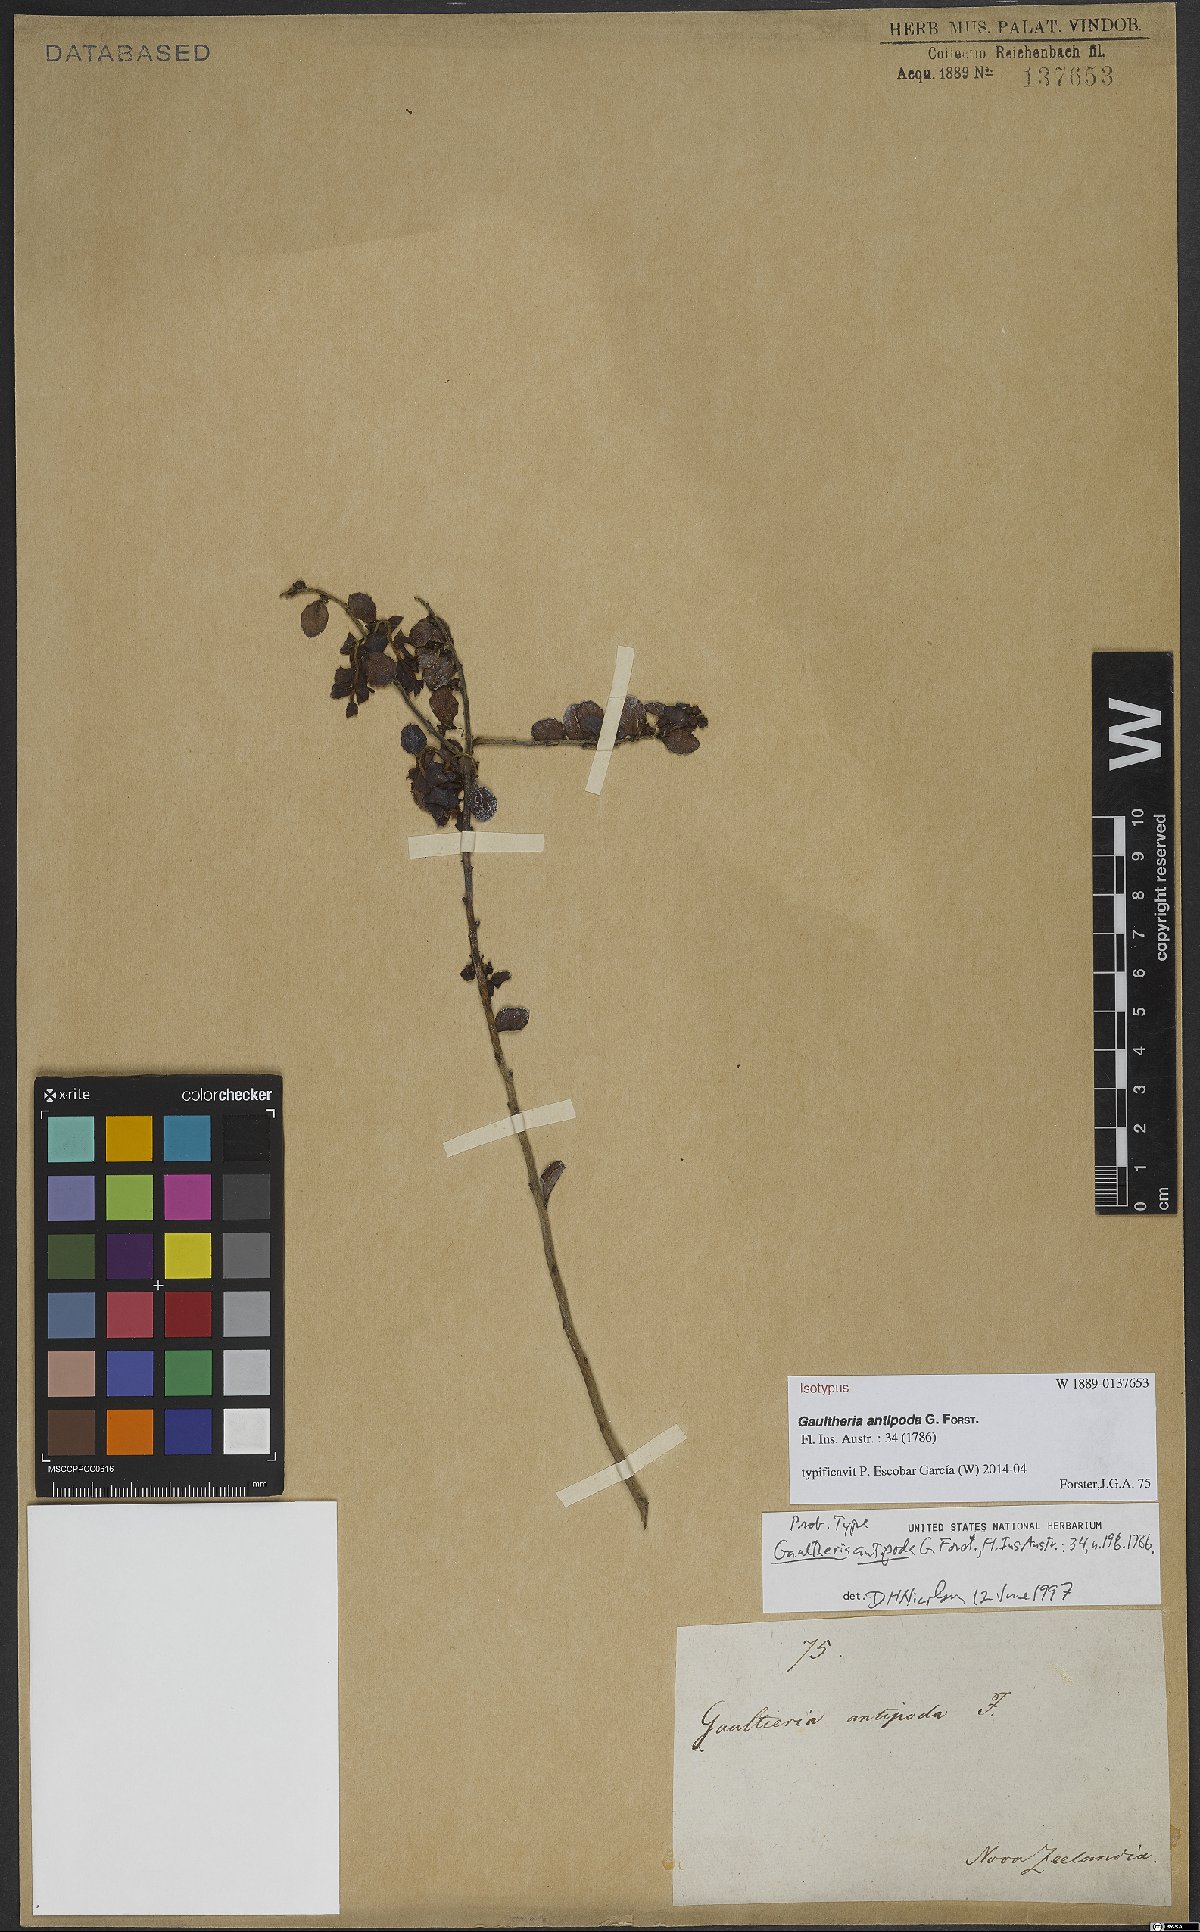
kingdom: Plantae
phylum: Tracheophyta
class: Magnoliopsida
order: Ericales
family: Ericaceae
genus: Gaultheria
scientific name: Gaultheria antipoda
